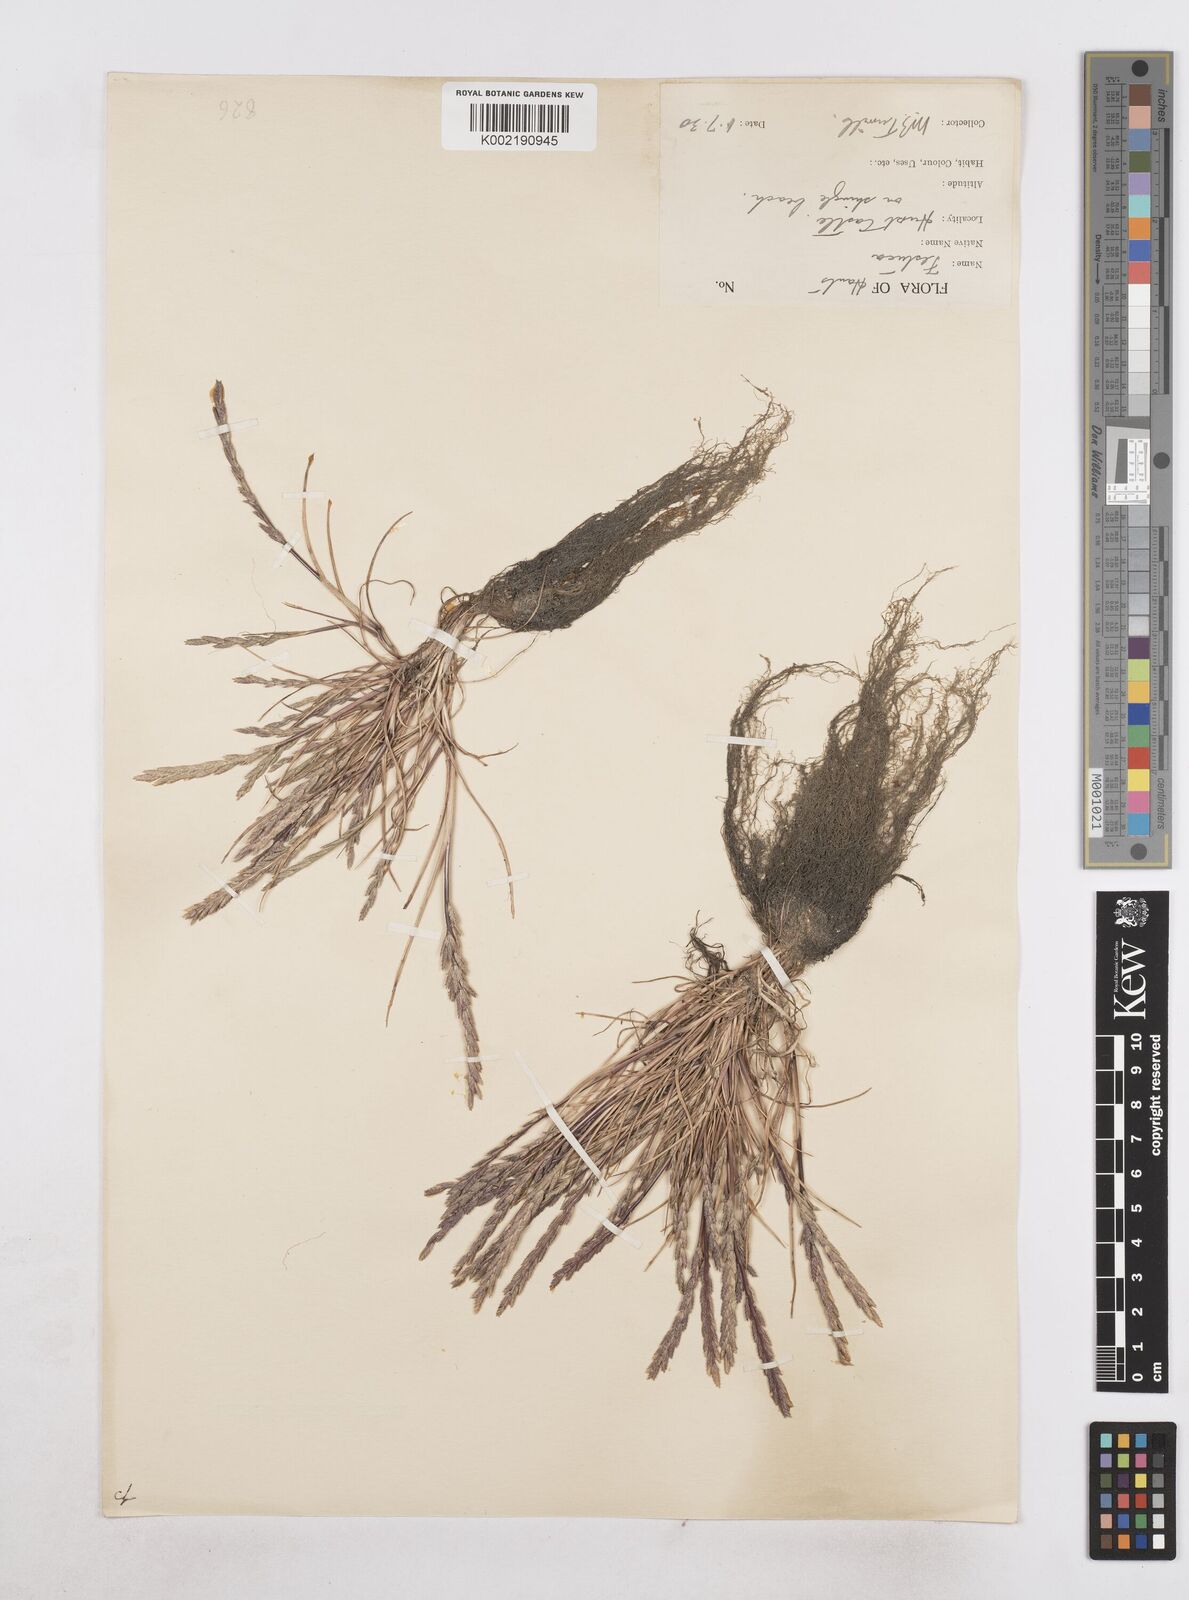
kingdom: Plantae
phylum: Tracheophyta
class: Liliopsida
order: Poales
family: Poaceae
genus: Catapodium
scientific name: Catapodium marinum
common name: Sea fern-grass
